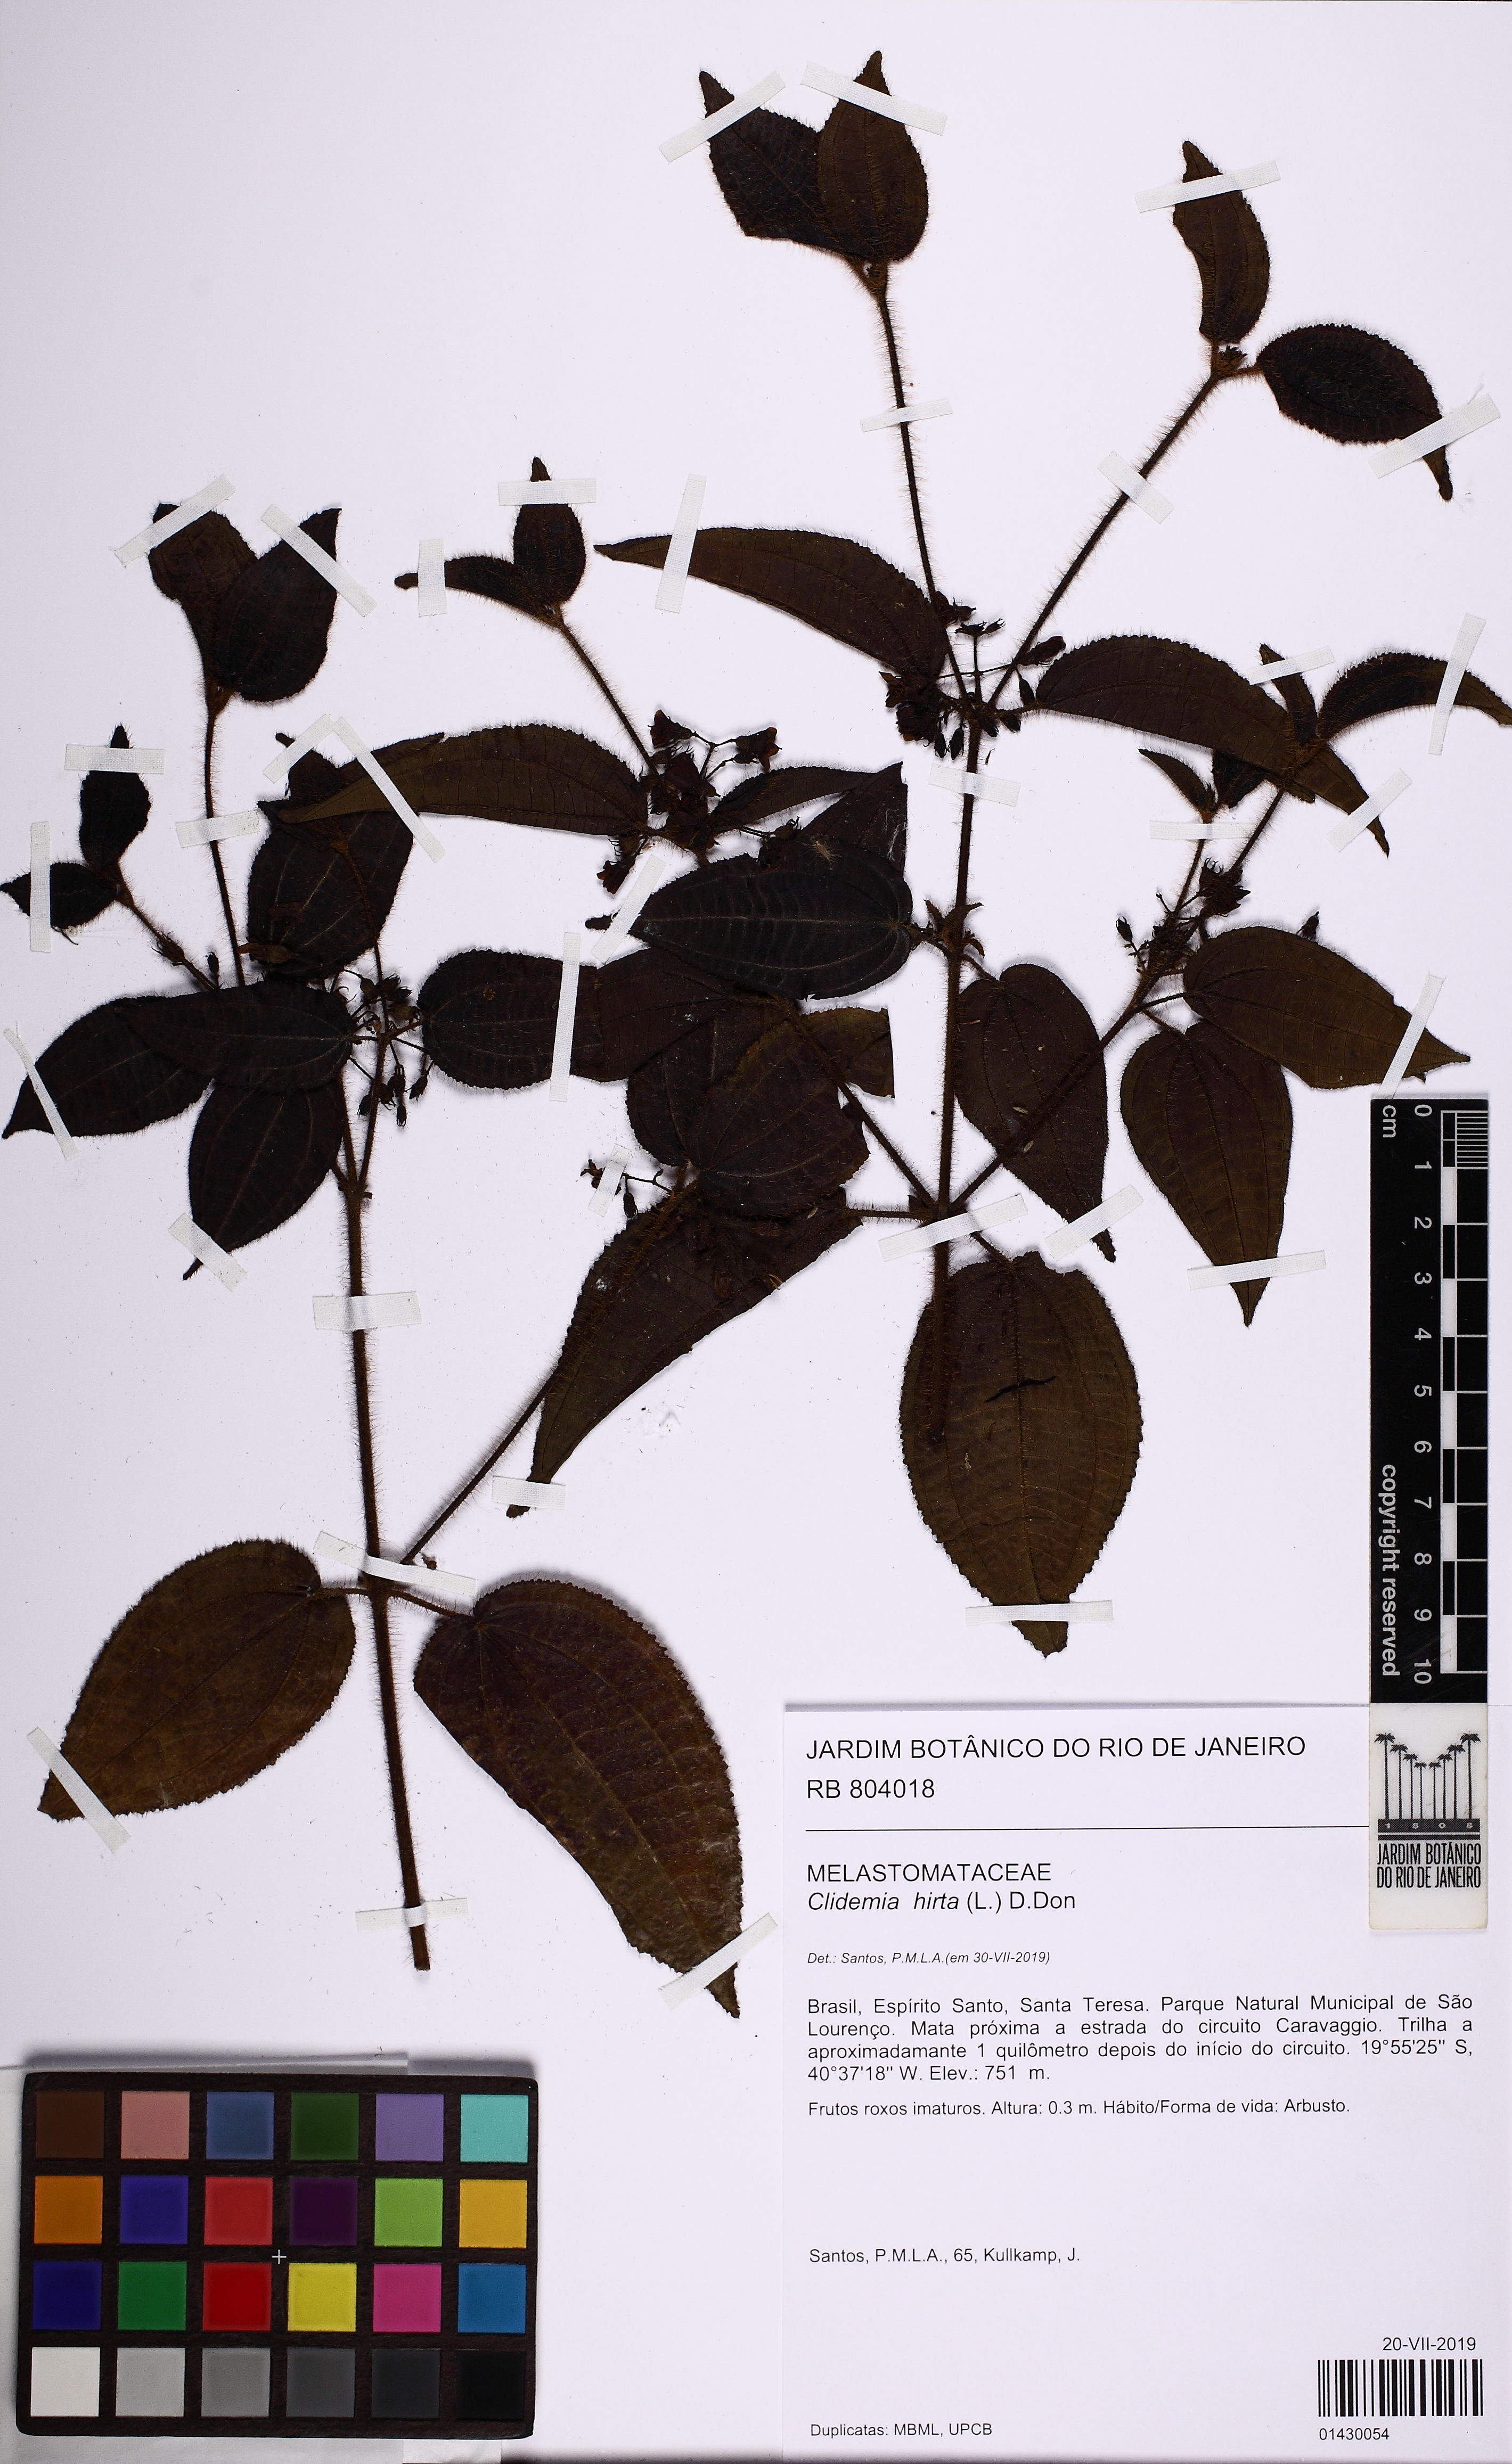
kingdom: Plantae
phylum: Tracheophyta
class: Magnoliopsida
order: Myrtales
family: Melastomataceae
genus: Miconia
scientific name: Miconia crenata
